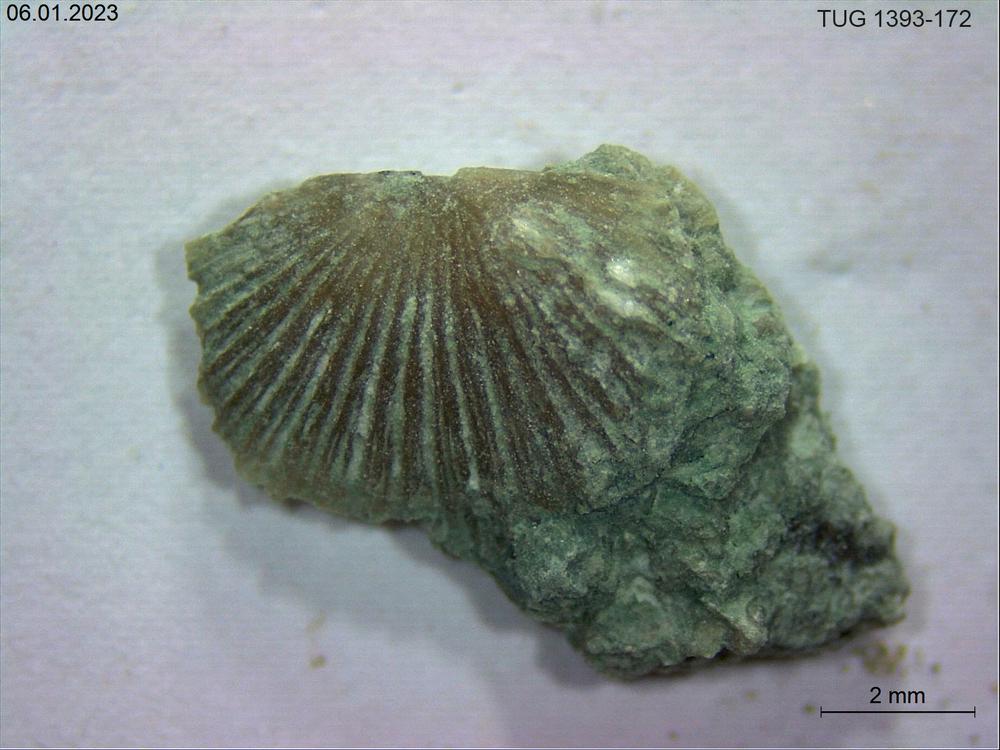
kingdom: Animalia
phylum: Brachiopoda
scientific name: Brachiopoda
